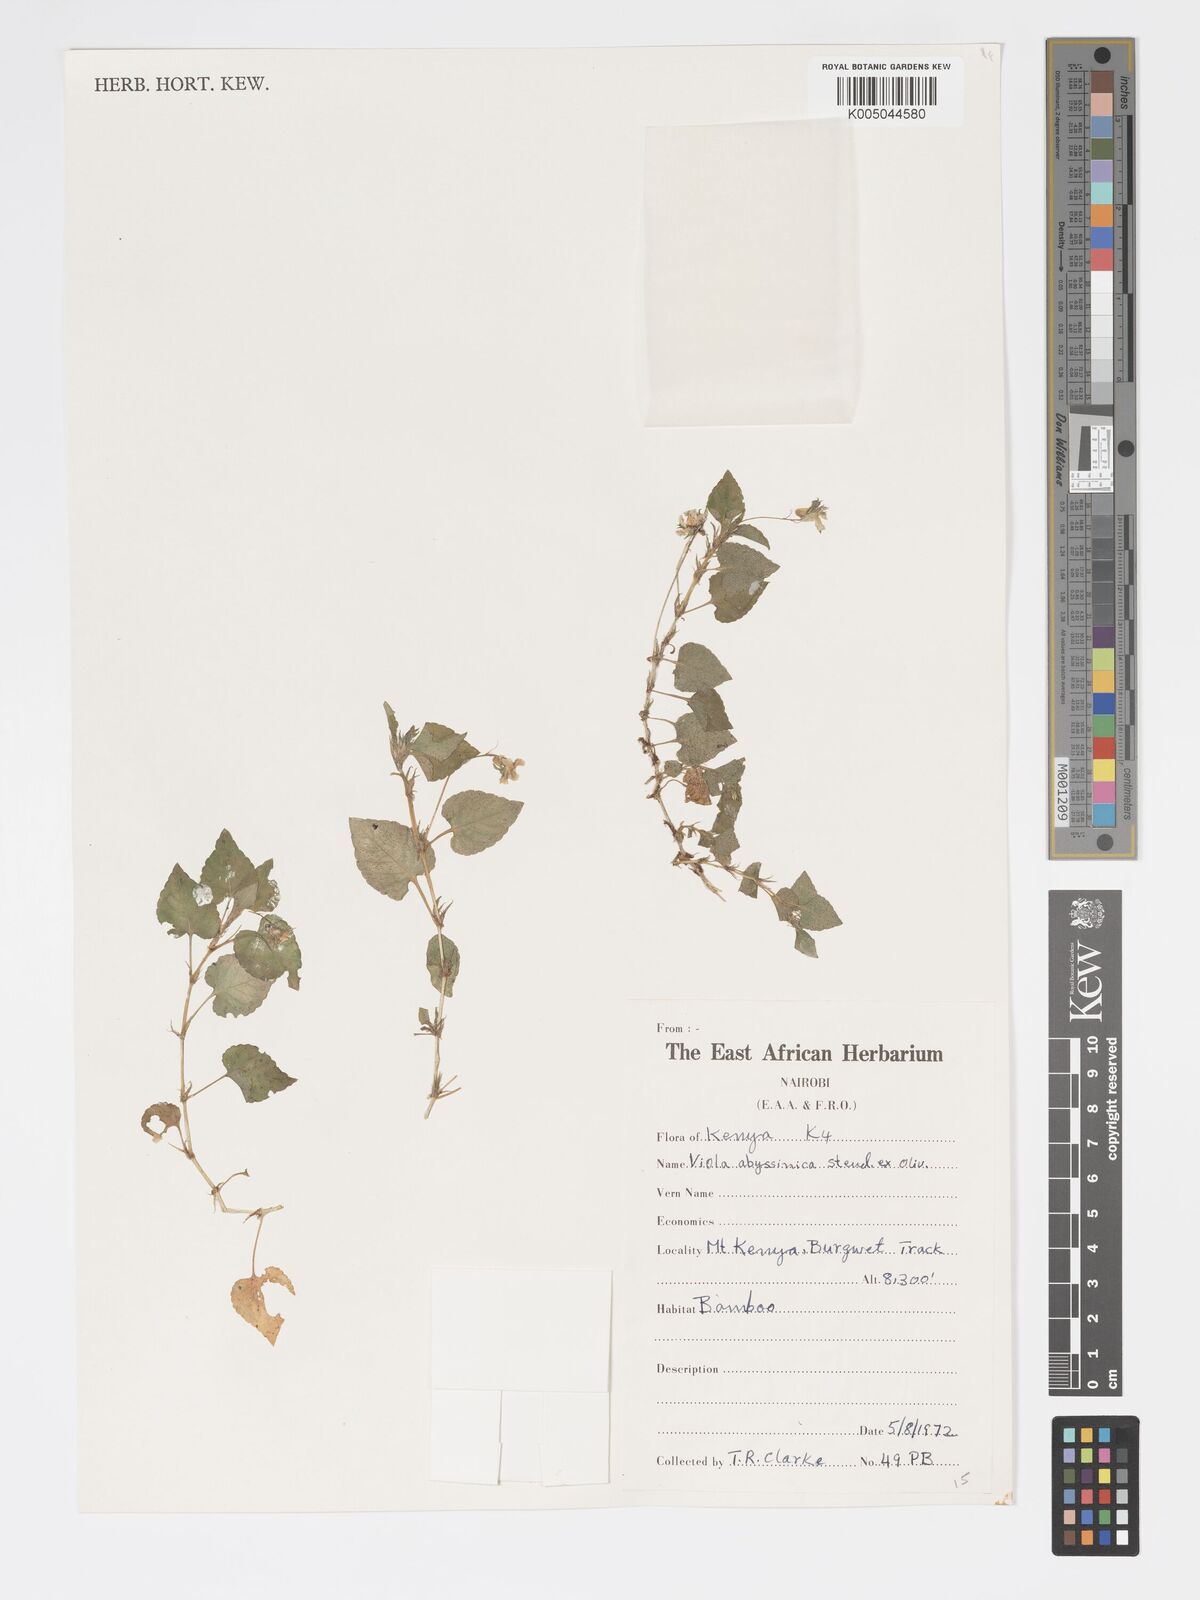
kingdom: Plantae
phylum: Tracheophyta
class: Magnoliopsida
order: Malpighiales
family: Violaceae
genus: Viola
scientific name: Viola abyssinica
